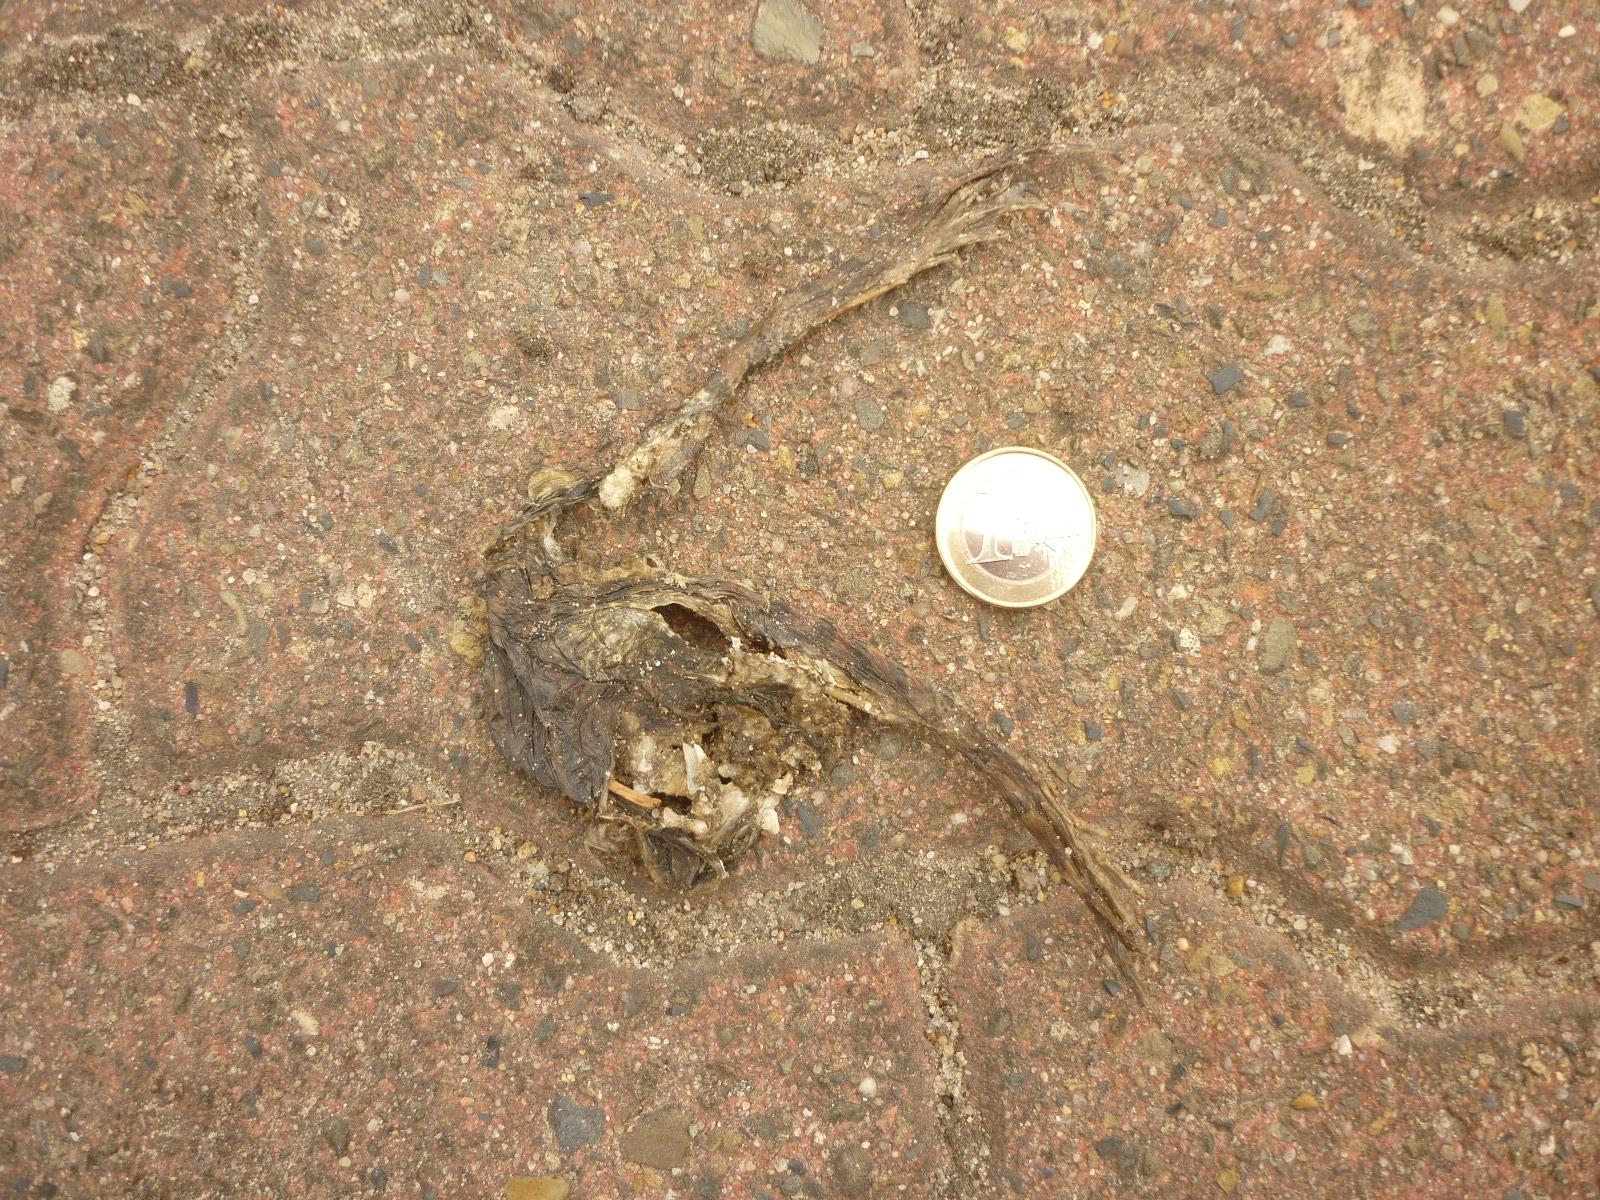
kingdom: Animalia
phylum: Chordata
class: Amphibia
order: Anura
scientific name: Anura
